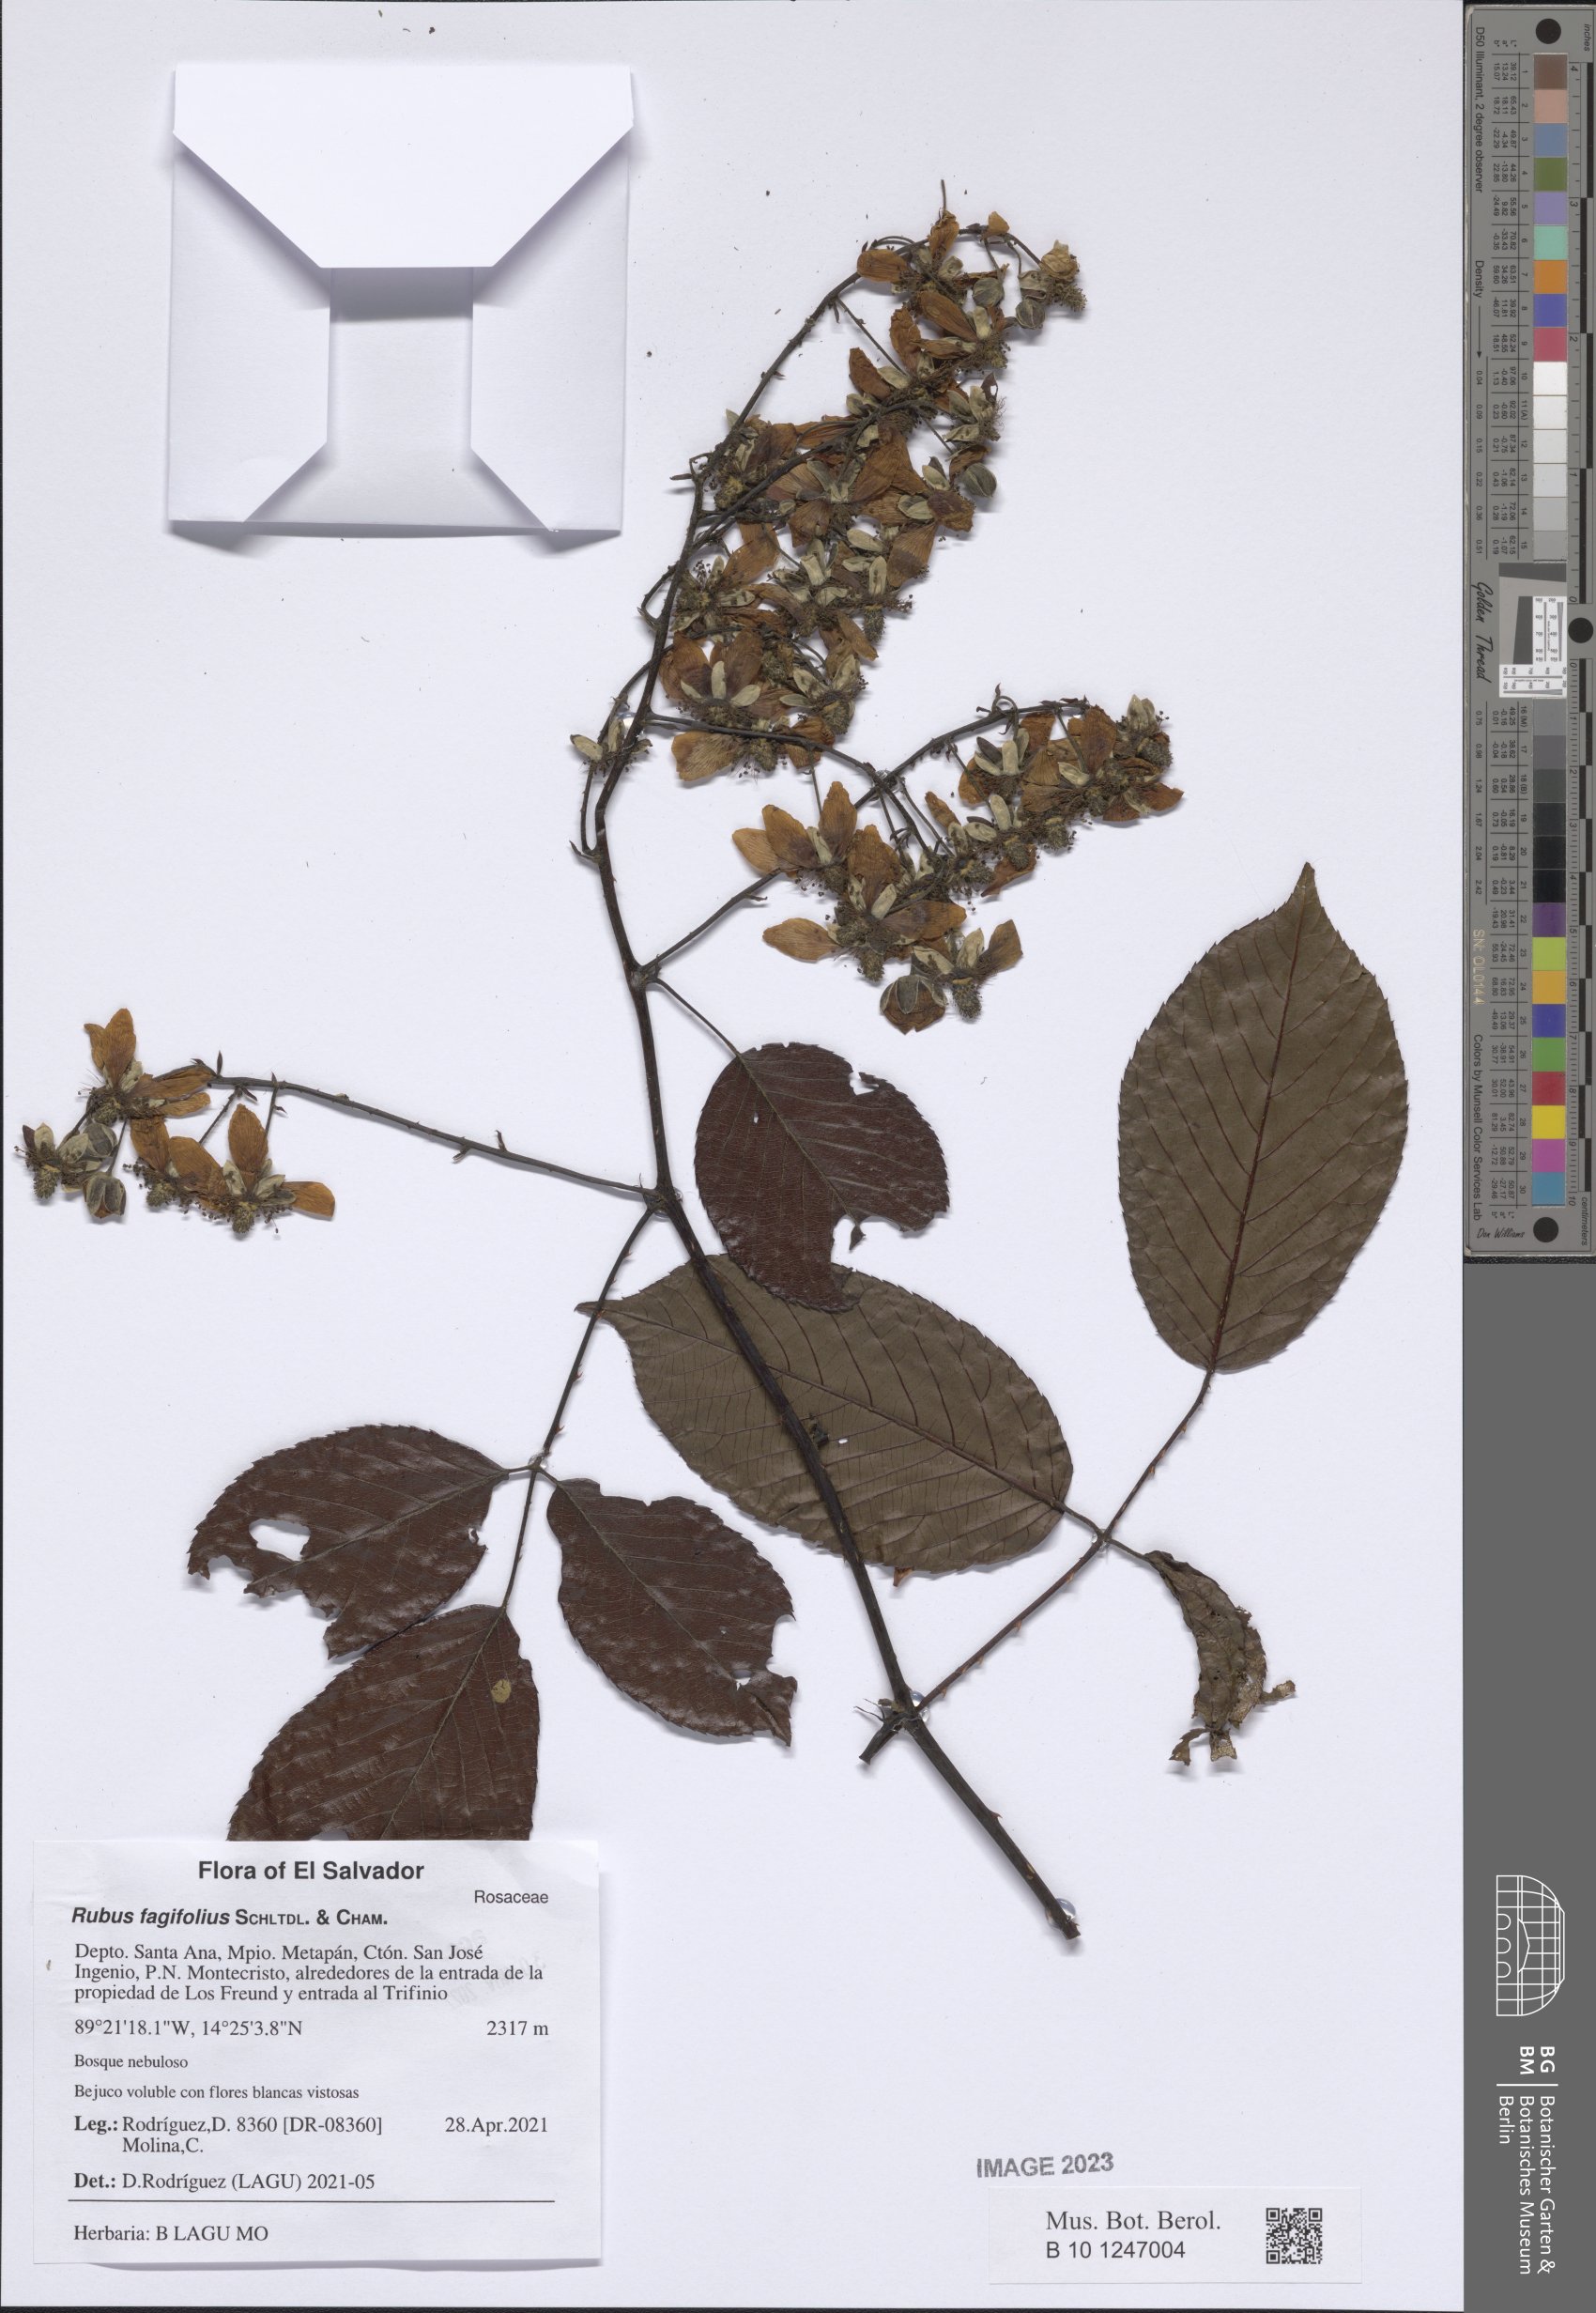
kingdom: Plantae
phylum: Tracheophyta
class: Magnoliopsida
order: Rosales
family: Rosaceae
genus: Rubus
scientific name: Rubus fagifolius
